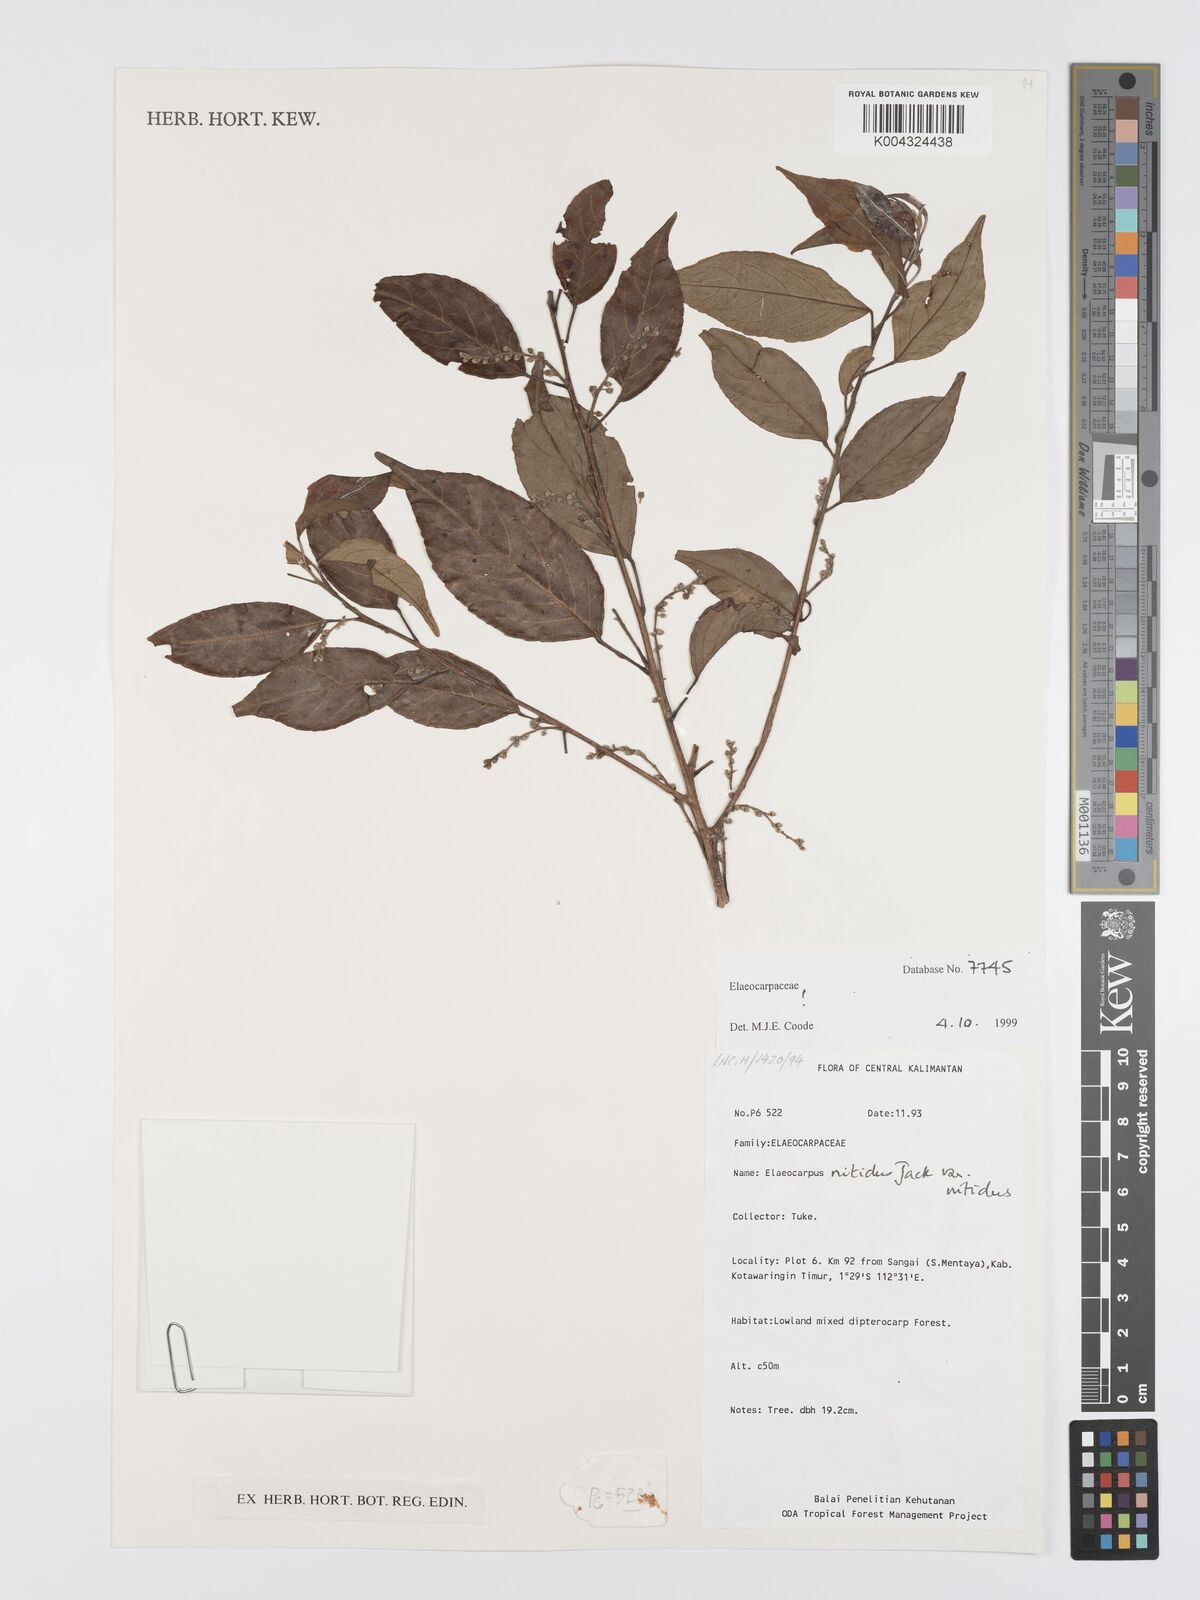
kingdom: Plantae
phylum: Tracheophyta
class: Magnoliopsida
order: Oxalidales
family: Elaeocarpaceae
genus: Elaeocarpus
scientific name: Elaeocarpus nitidus
